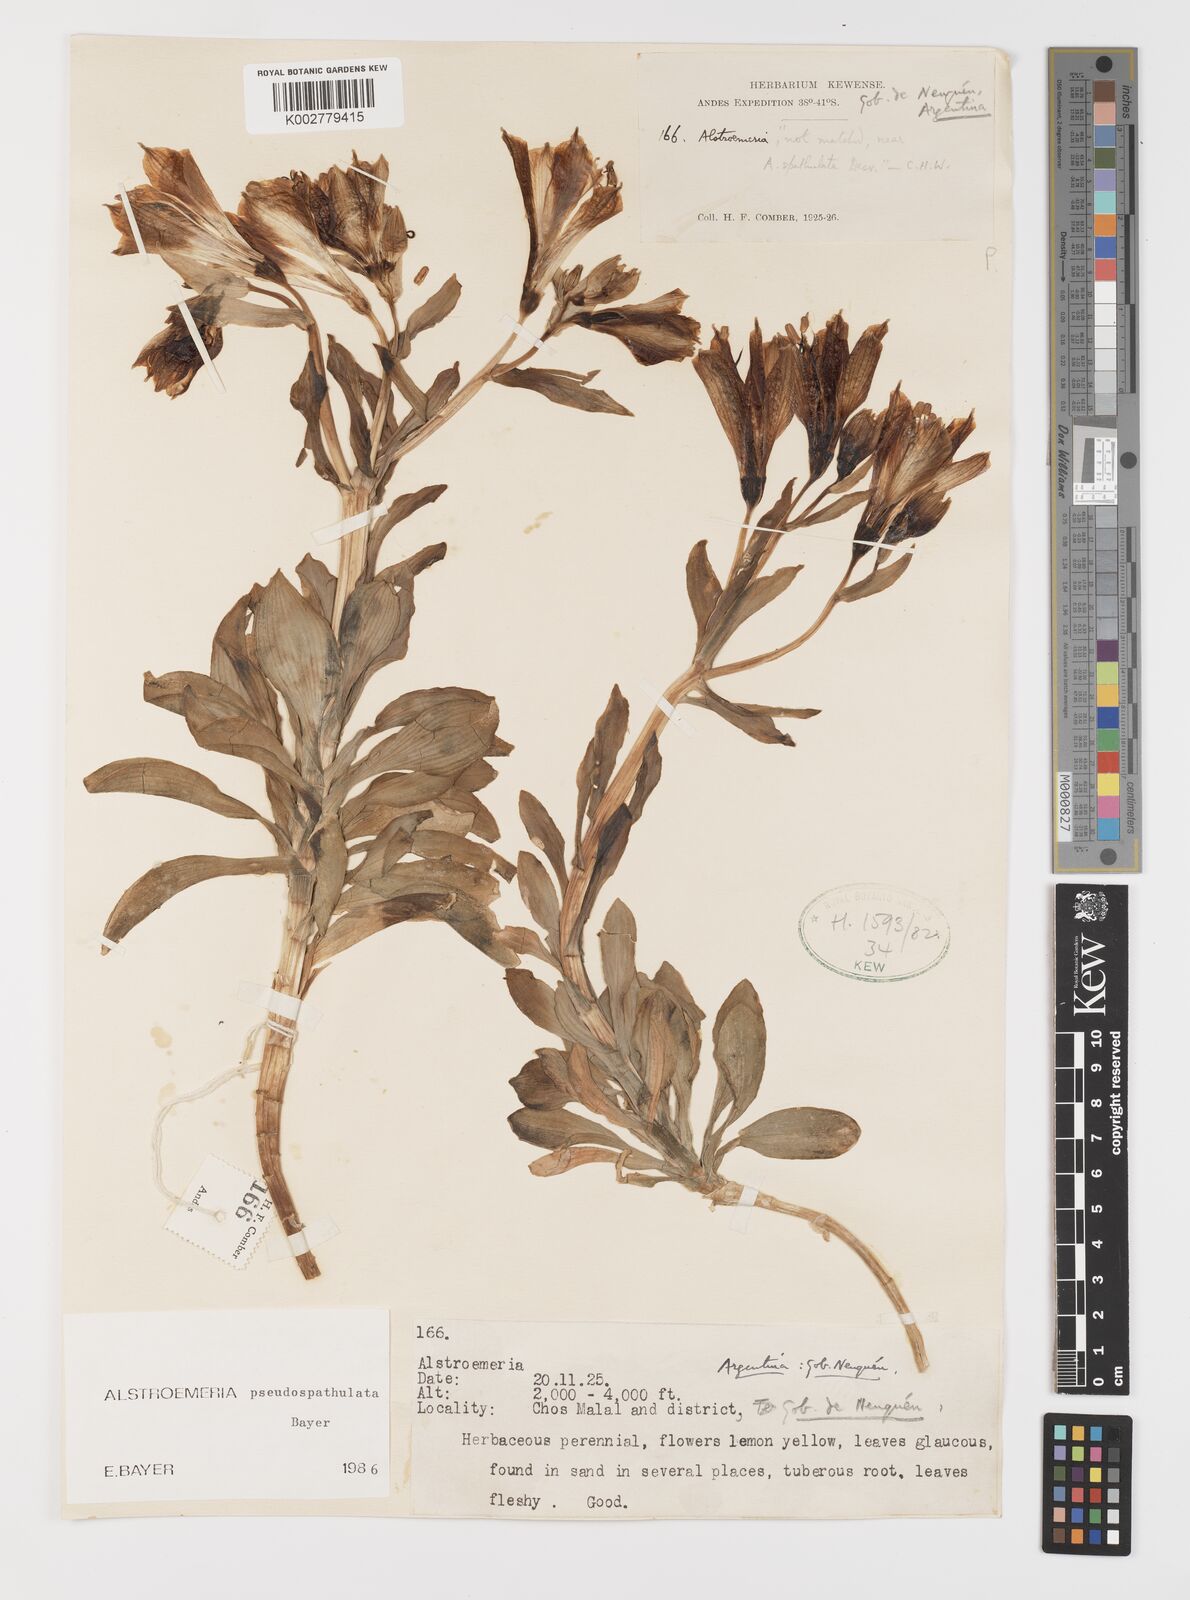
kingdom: Plantae
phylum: Tracheophyta
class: Liliopsida
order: Liliales
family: Alstroemeriaceae
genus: Alstroemeria
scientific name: Alstroemeria pseudospathulata
